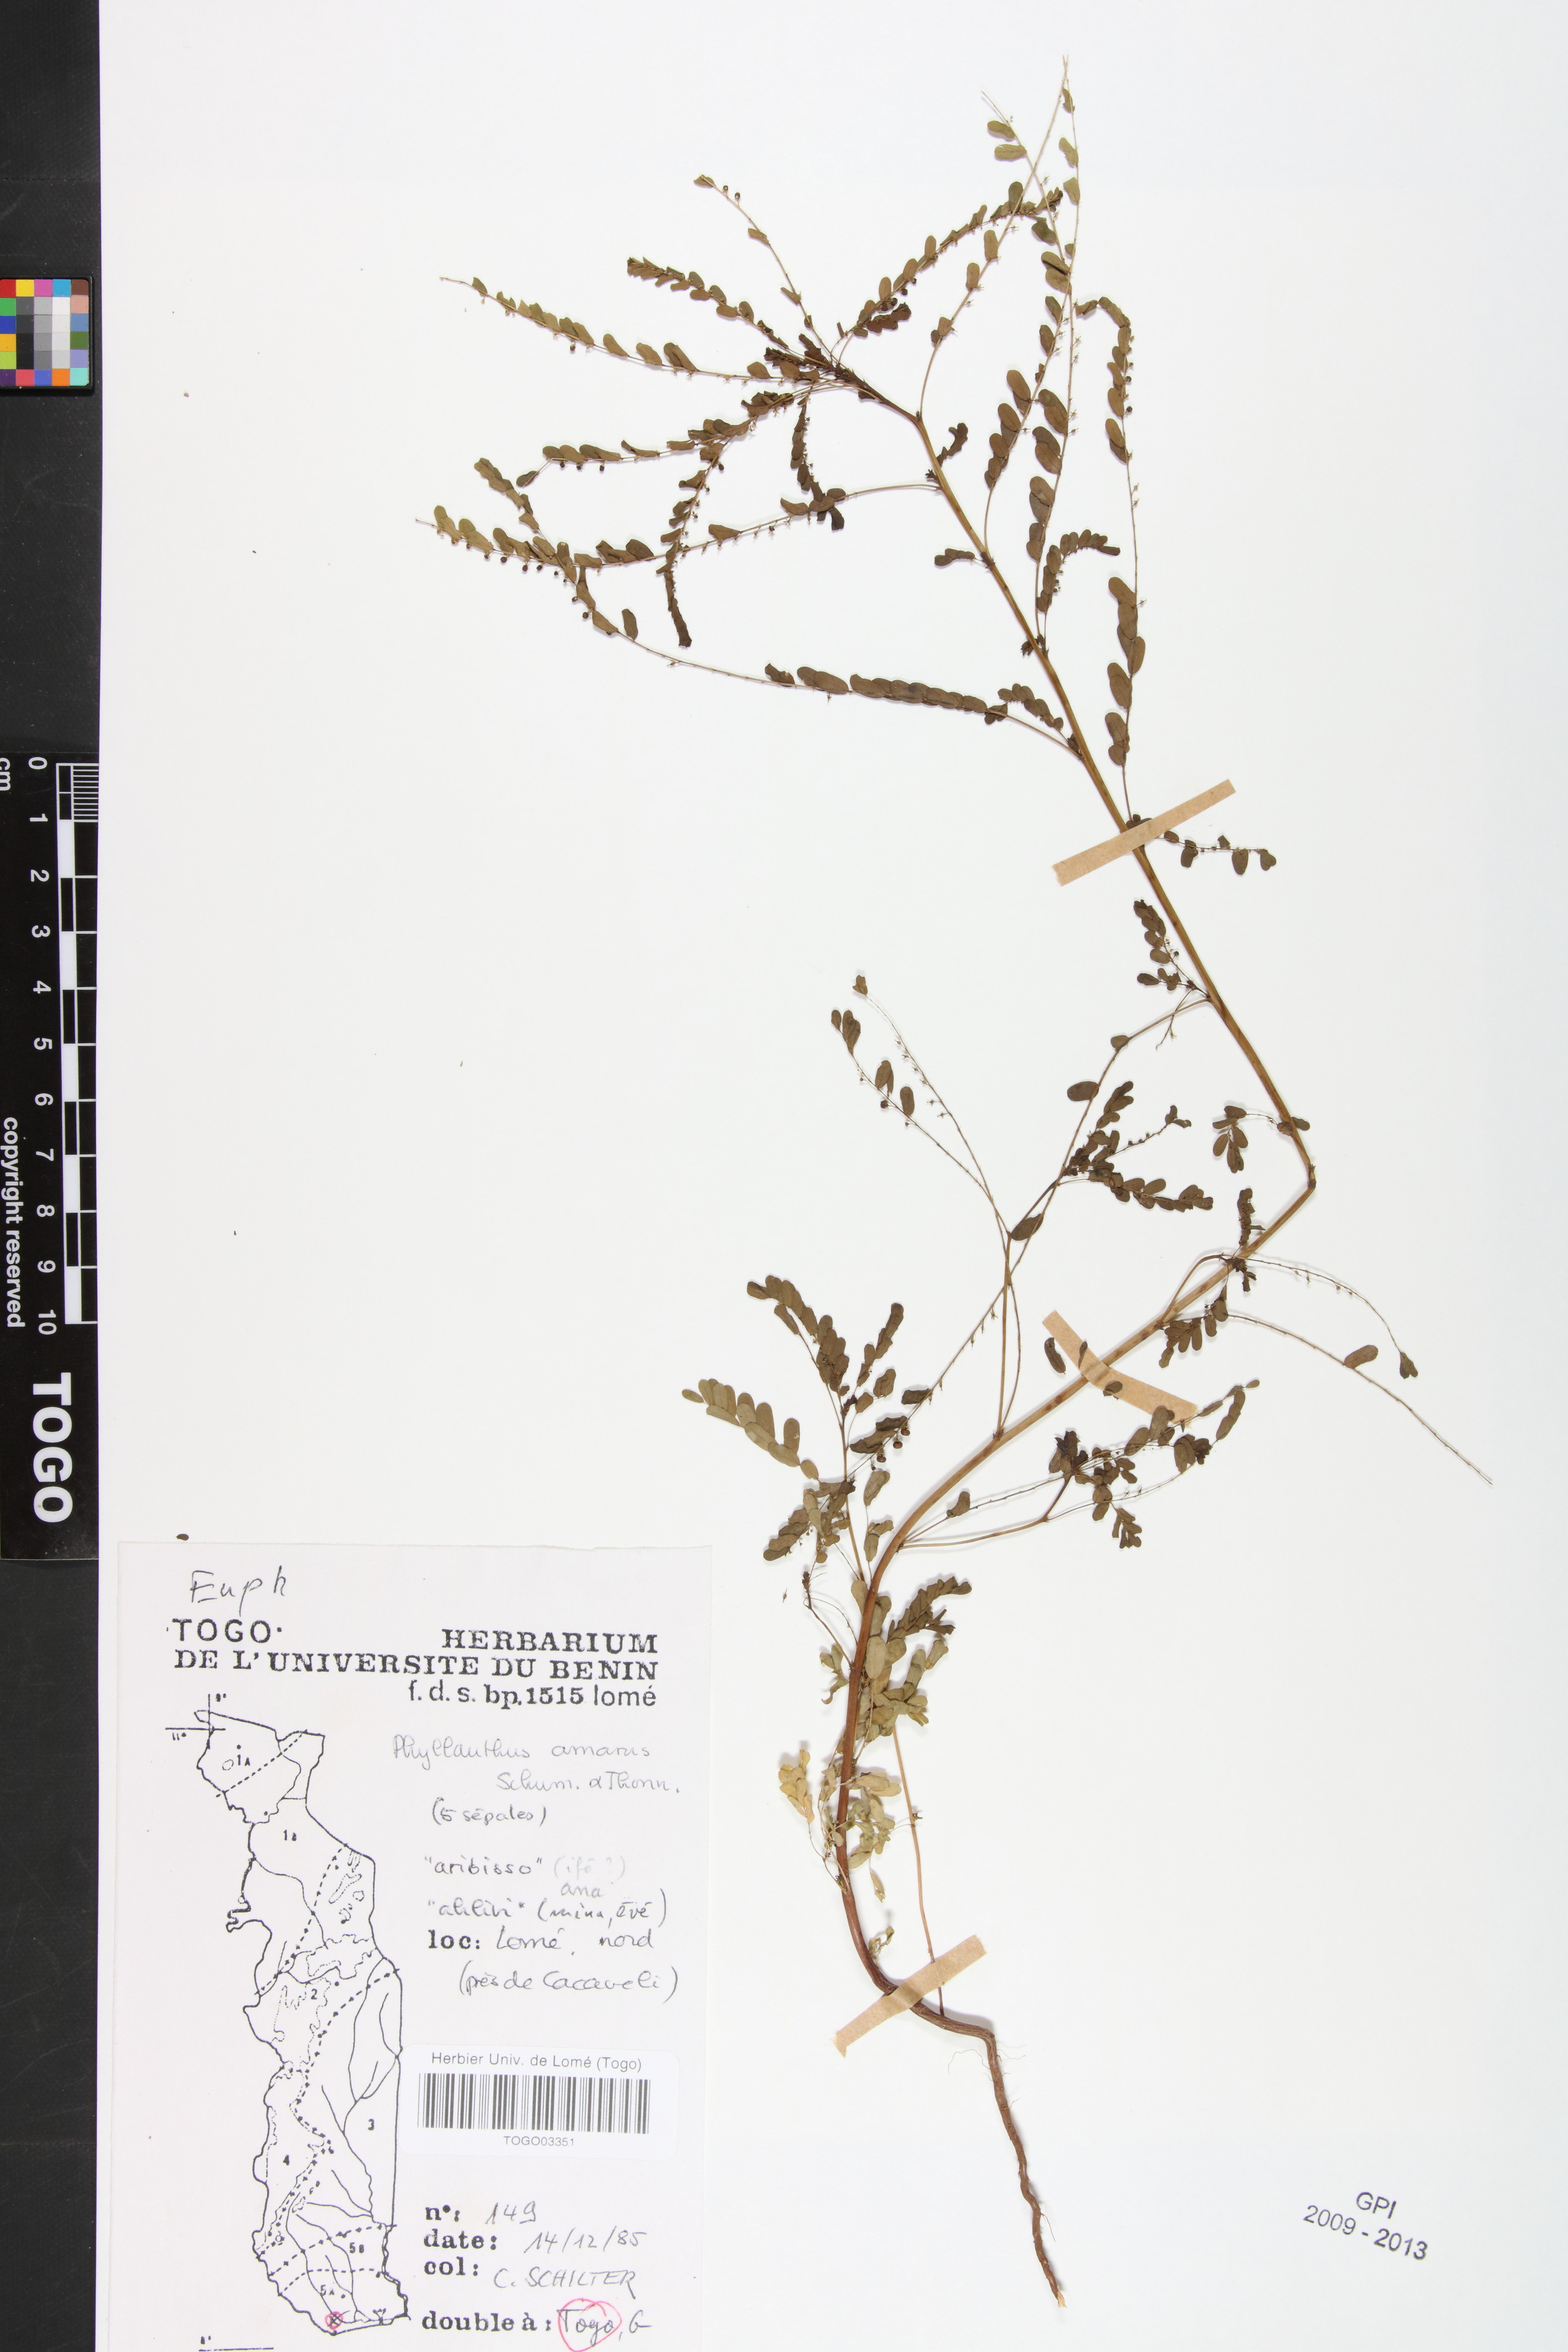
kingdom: Plantae
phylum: Tracheophyta
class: Magnoliopsida
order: Malpighiales
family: Phyllanthaceae
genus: Phyllanthus
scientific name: Phyllanthus amarus
